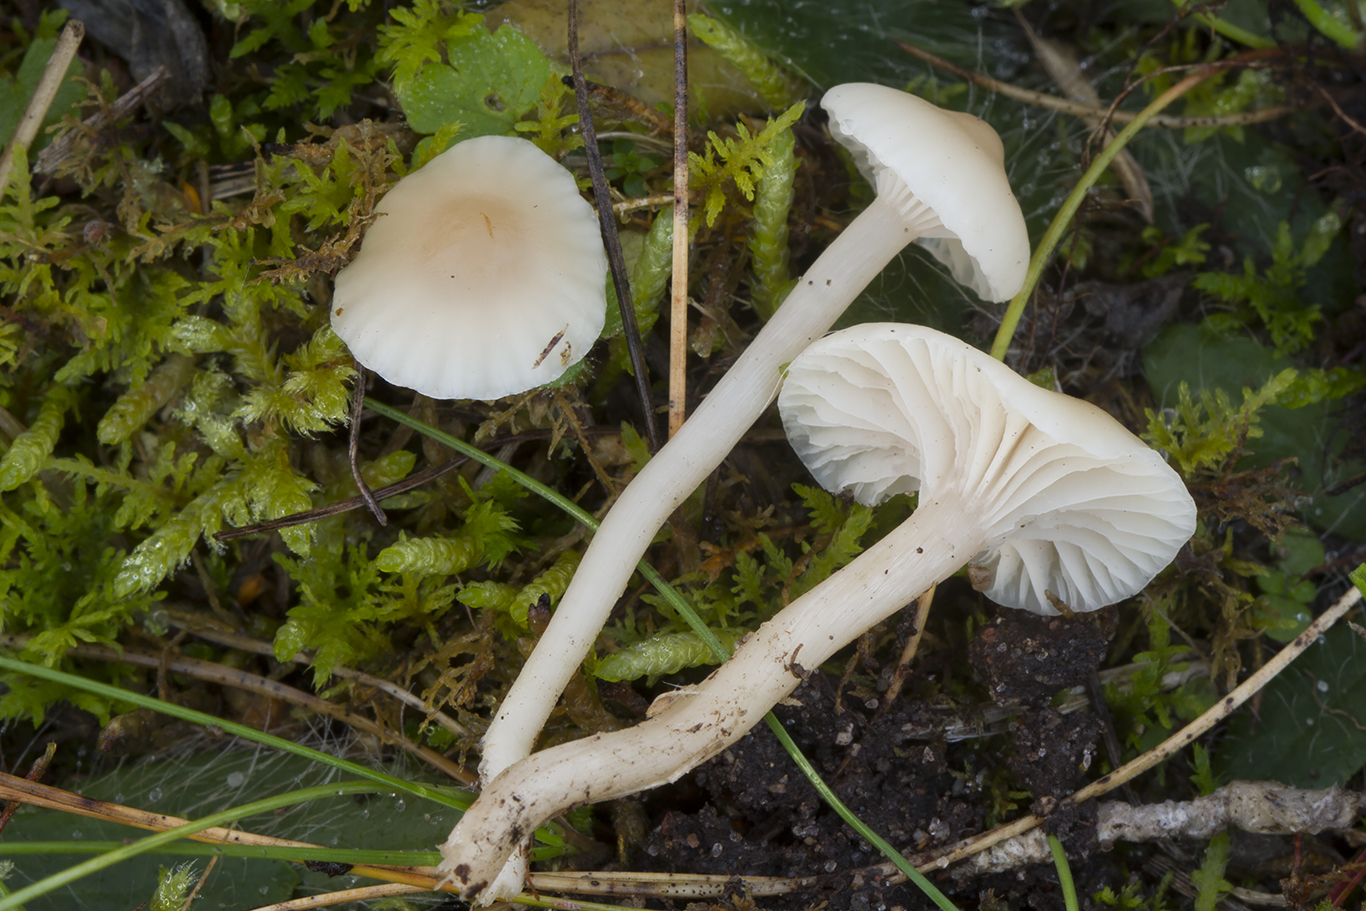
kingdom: Fungi
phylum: Basidiomycota
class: Agaricomycetes
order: Agaricales
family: Hygrophoraceae
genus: Cuphophyllus
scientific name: Cuphophyllus virgineus
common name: brunøjet vokshat
